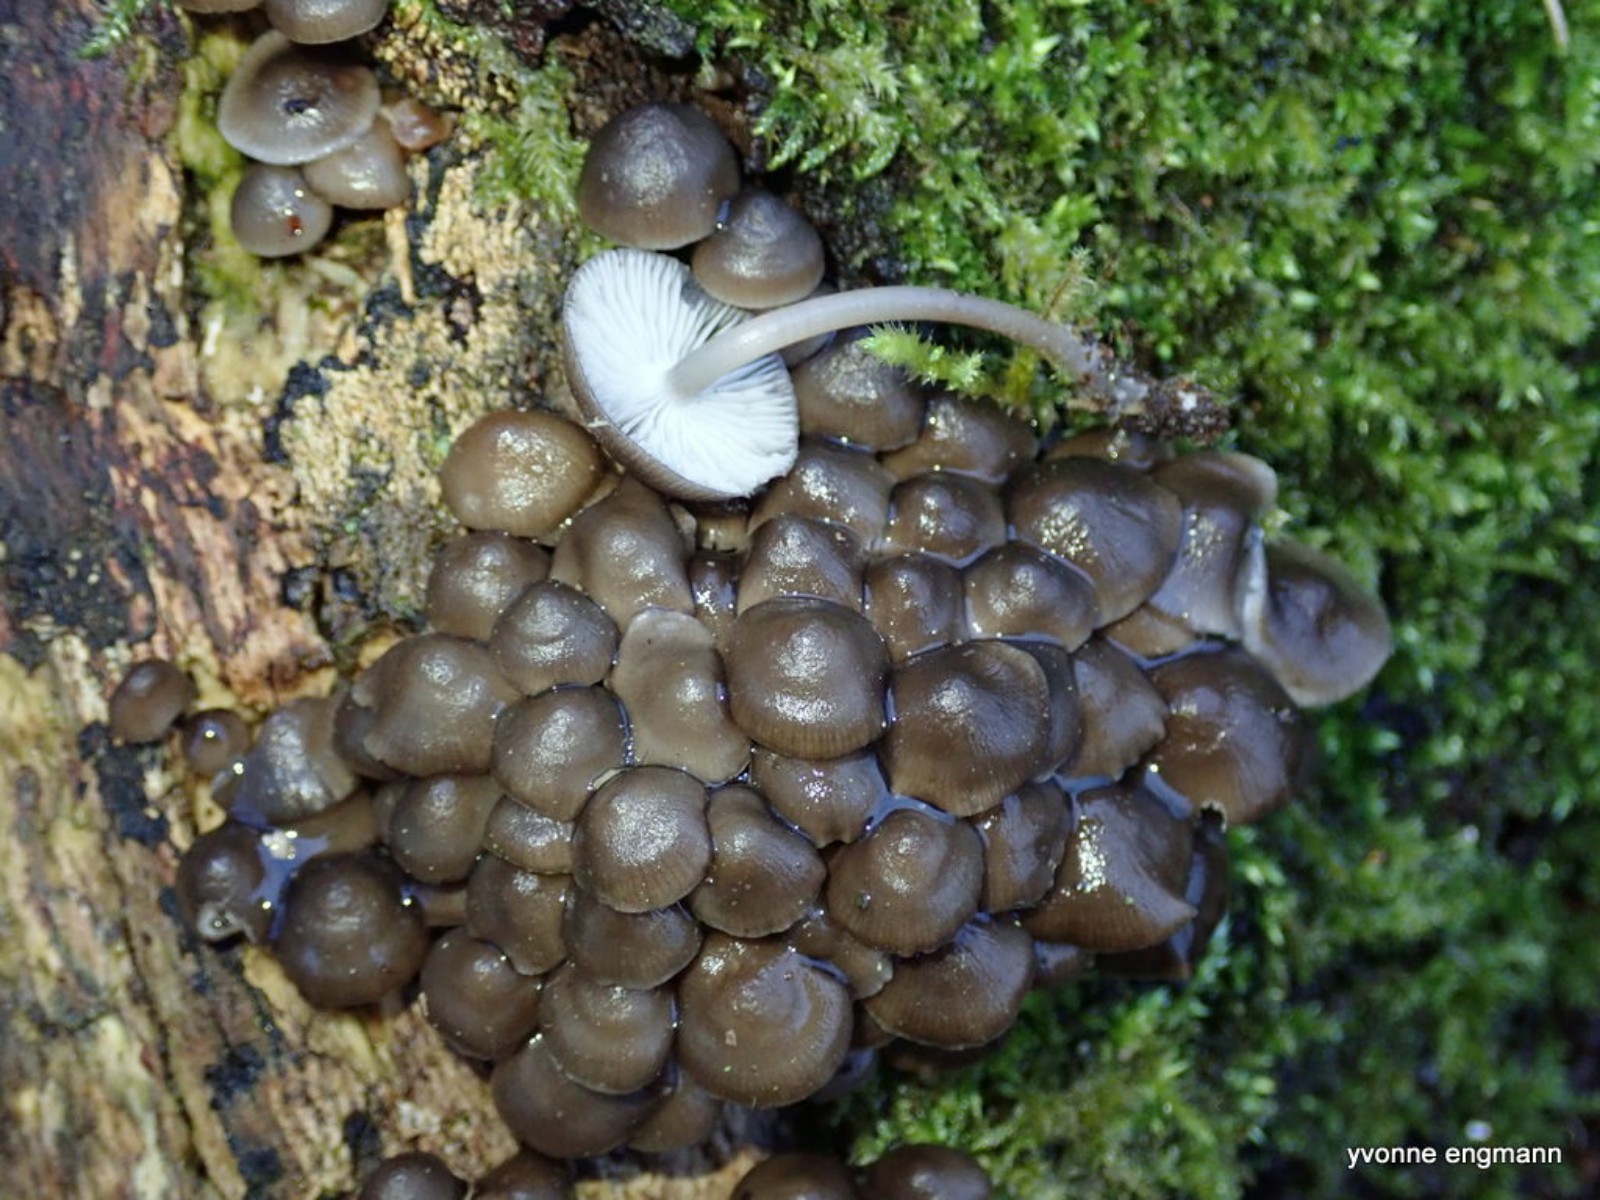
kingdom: Fungi
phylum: Basidiomycota
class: Agaricomycetes
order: Agaricales
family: Mycenaceae
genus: Mycena
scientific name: Mycena tintinnabulum
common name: vinter-huesvamp
